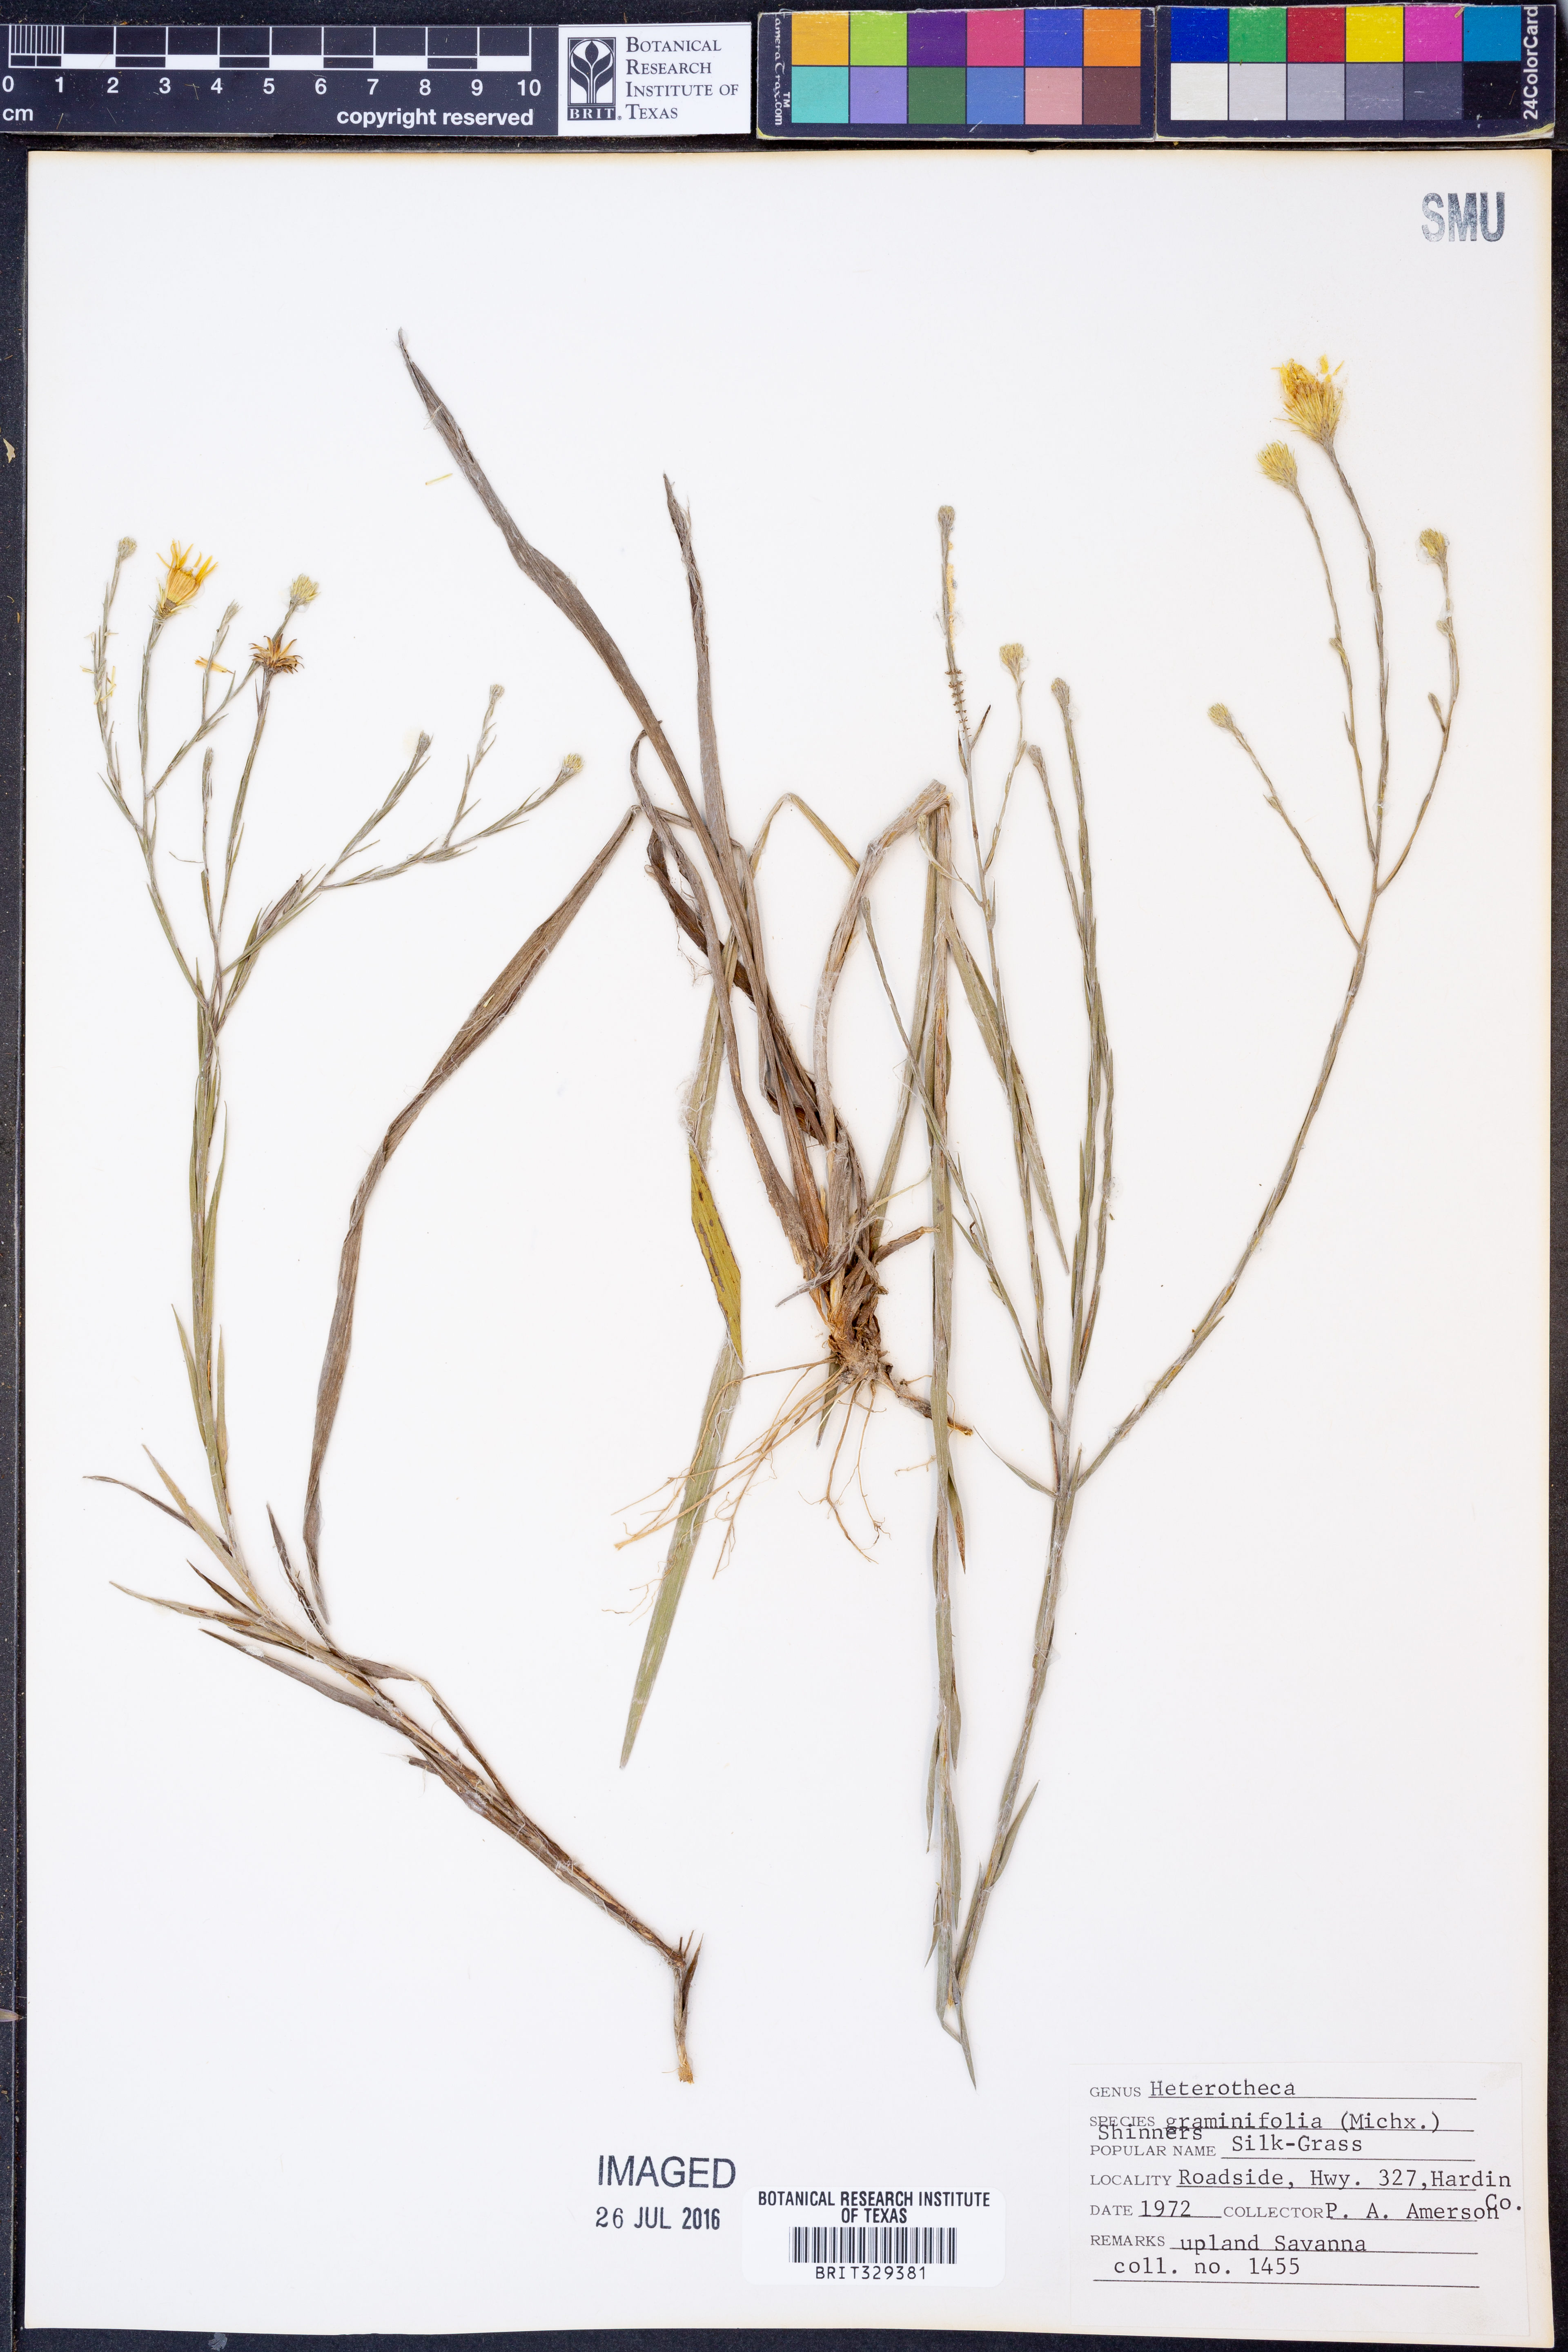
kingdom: Plantae
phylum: Tracheophyta
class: Magnoliopsida
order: Asterales
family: Asteraceae
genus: Pityopsis
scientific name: Pityopsis graminifolia
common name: Grass-leaf golden-aster
